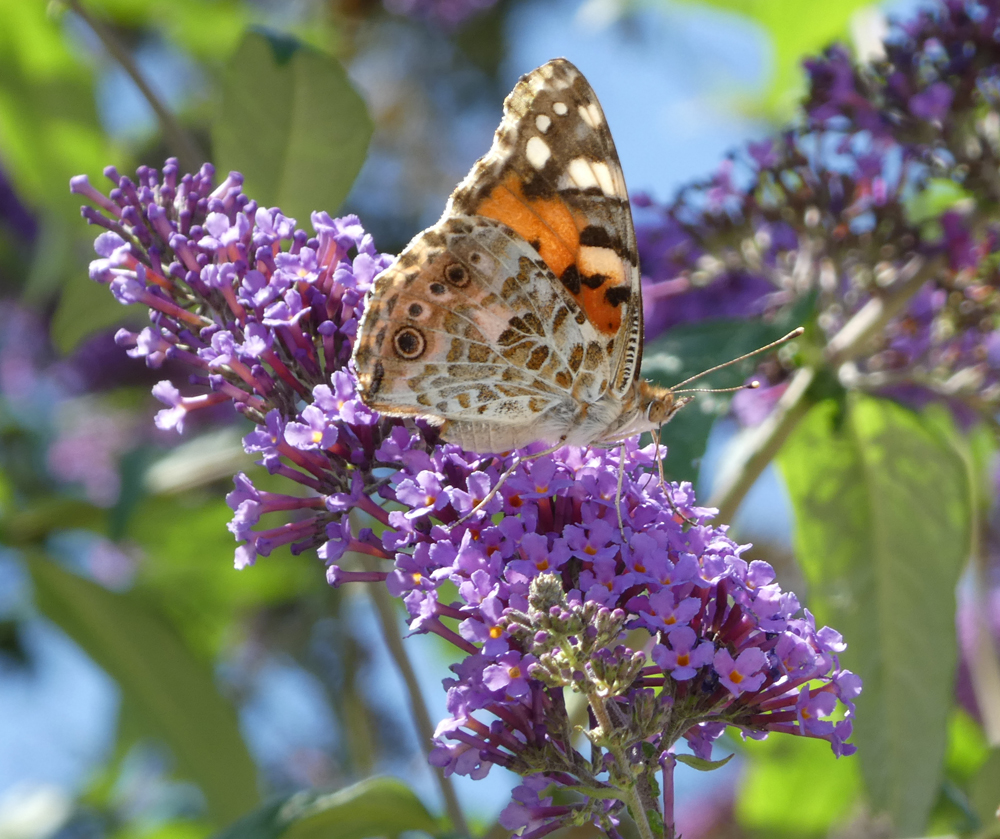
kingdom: Animalia
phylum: Arthropoda
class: Insecta
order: Lepidoptera
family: Nymphalidae
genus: Vanessa
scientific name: Vanessa cardui
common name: Painted lady
